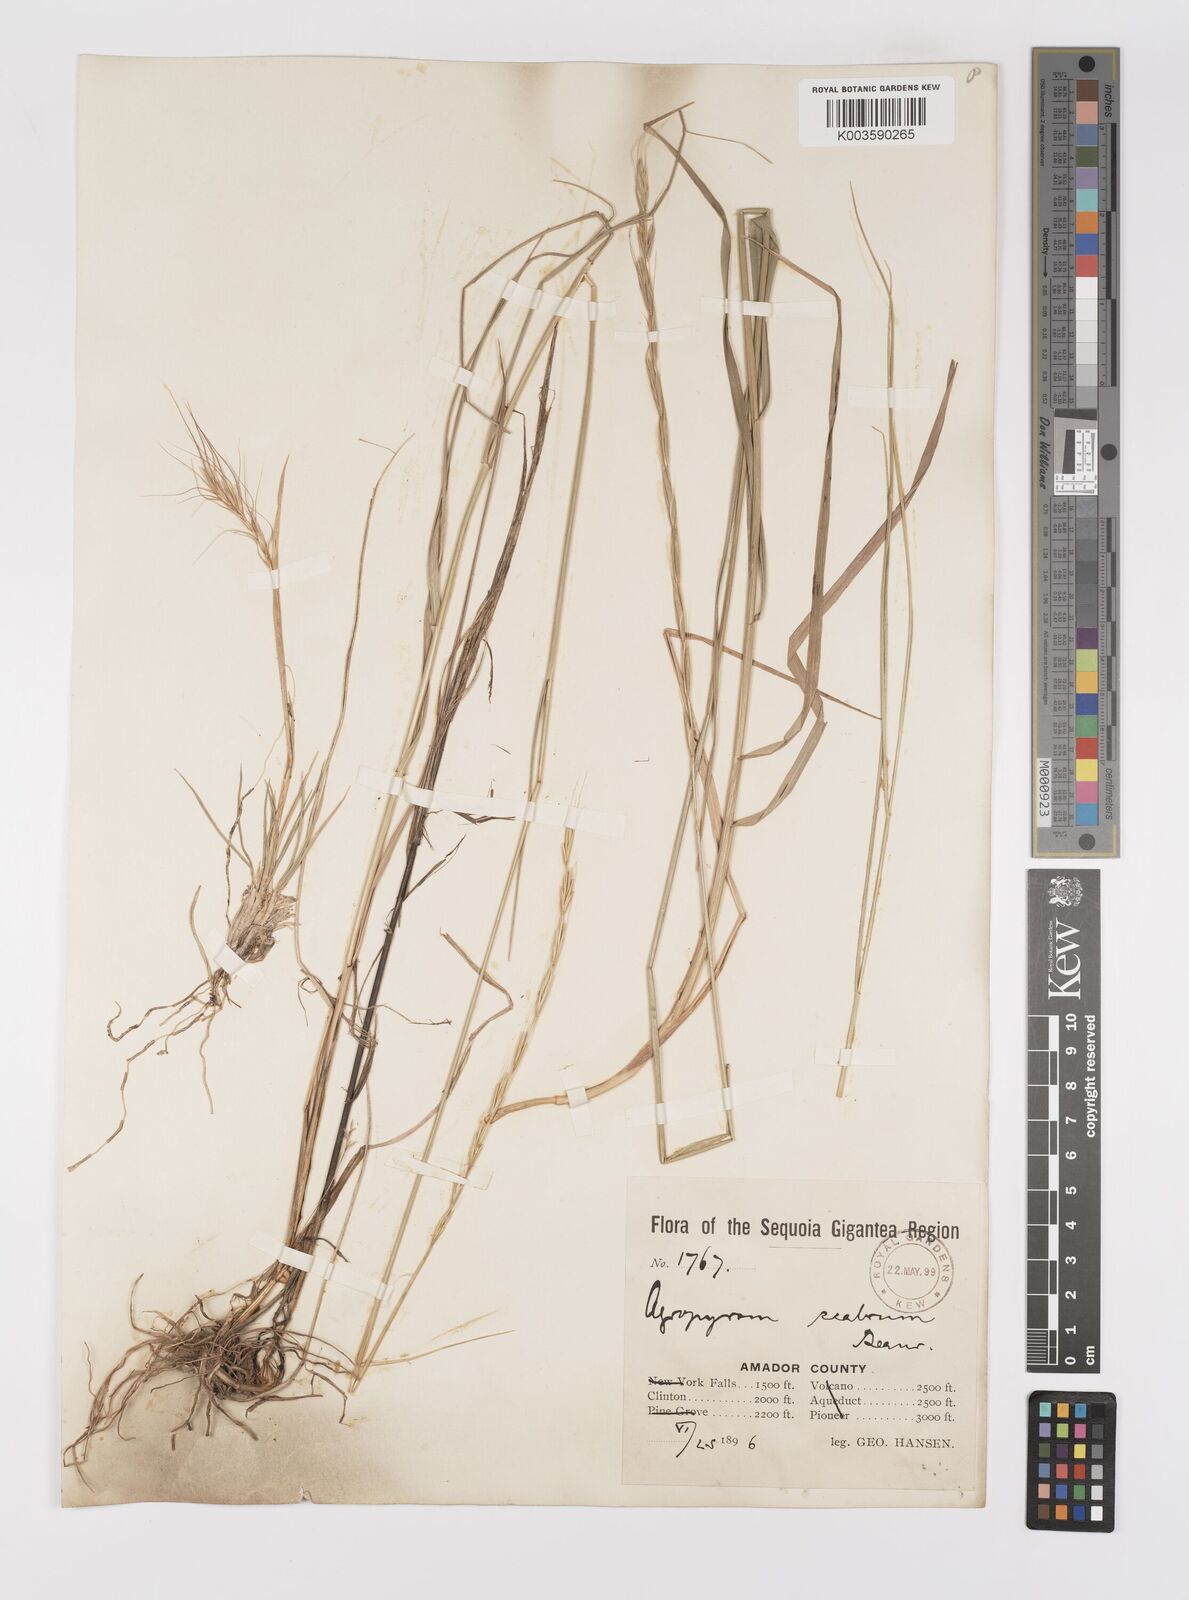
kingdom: Plantae
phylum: Tracheophyta
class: Liliopsida
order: Poales
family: Poaceae
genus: Elymus
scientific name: Elymus
